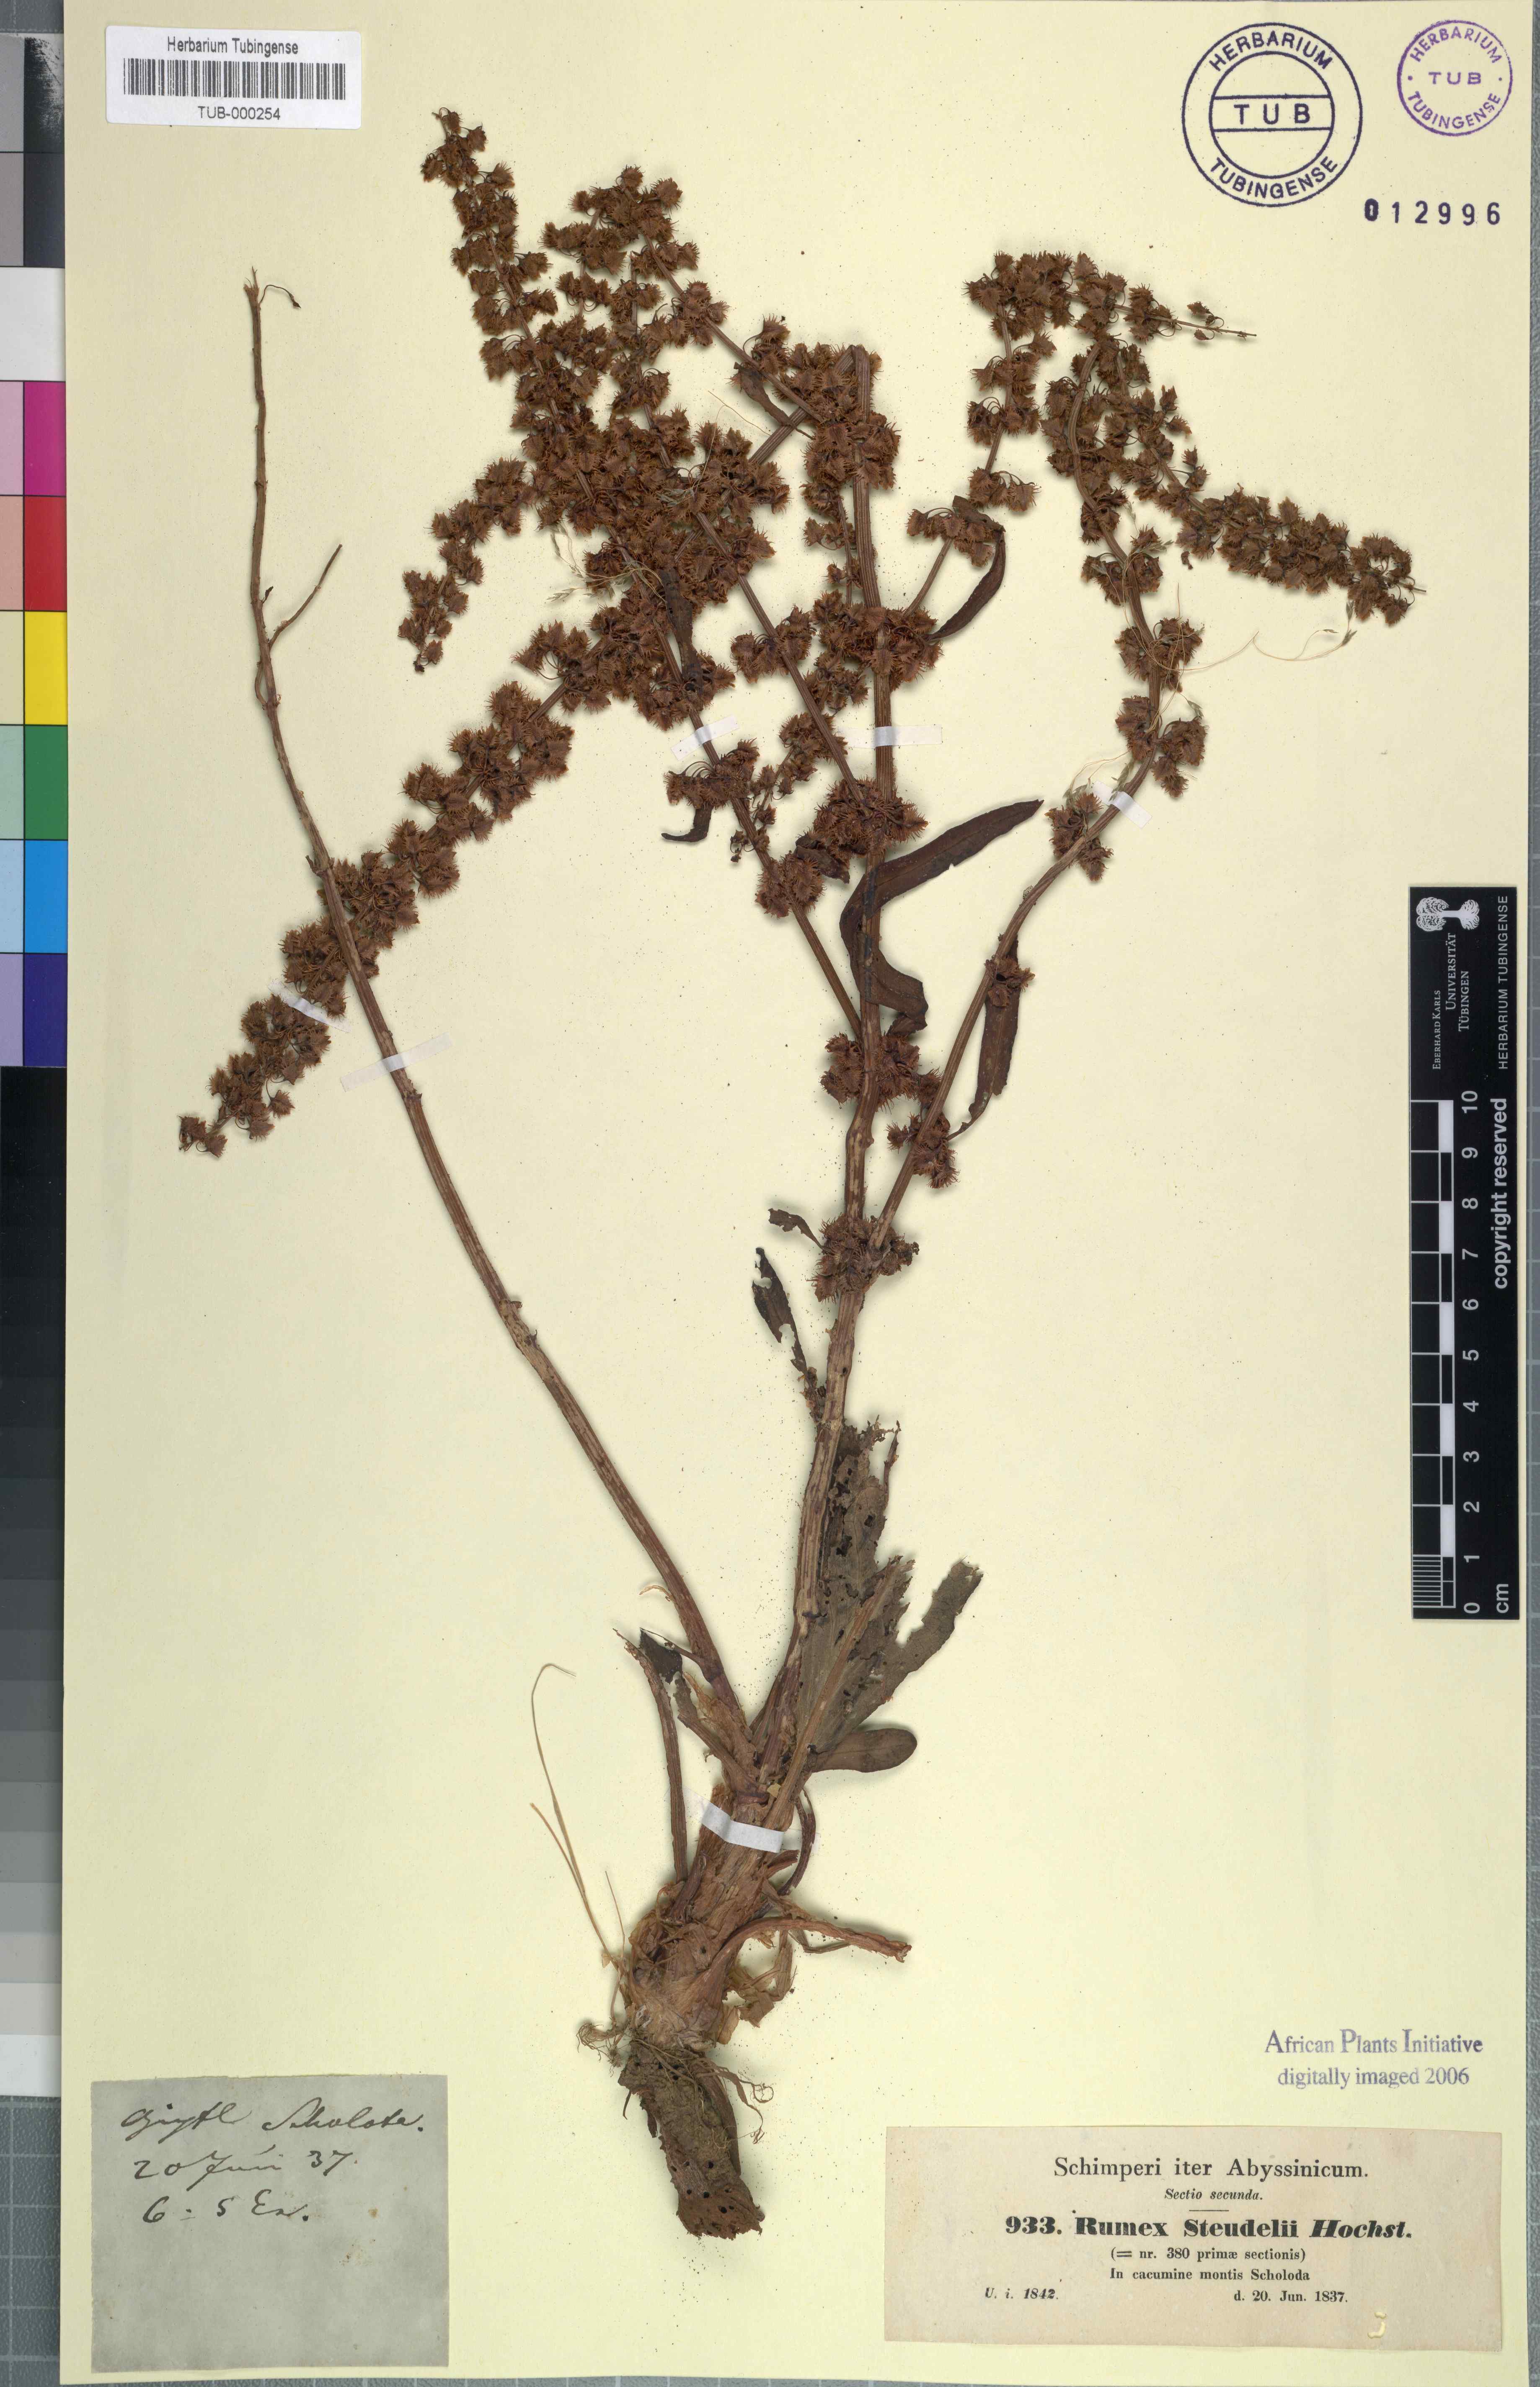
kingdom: Plantae
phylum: Tracheophyta
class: Magnoliopsida
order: Caryophyllales
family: Polygonaceae
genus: Rumex
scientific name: Rumex obtusifolius
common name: Bitter dock
